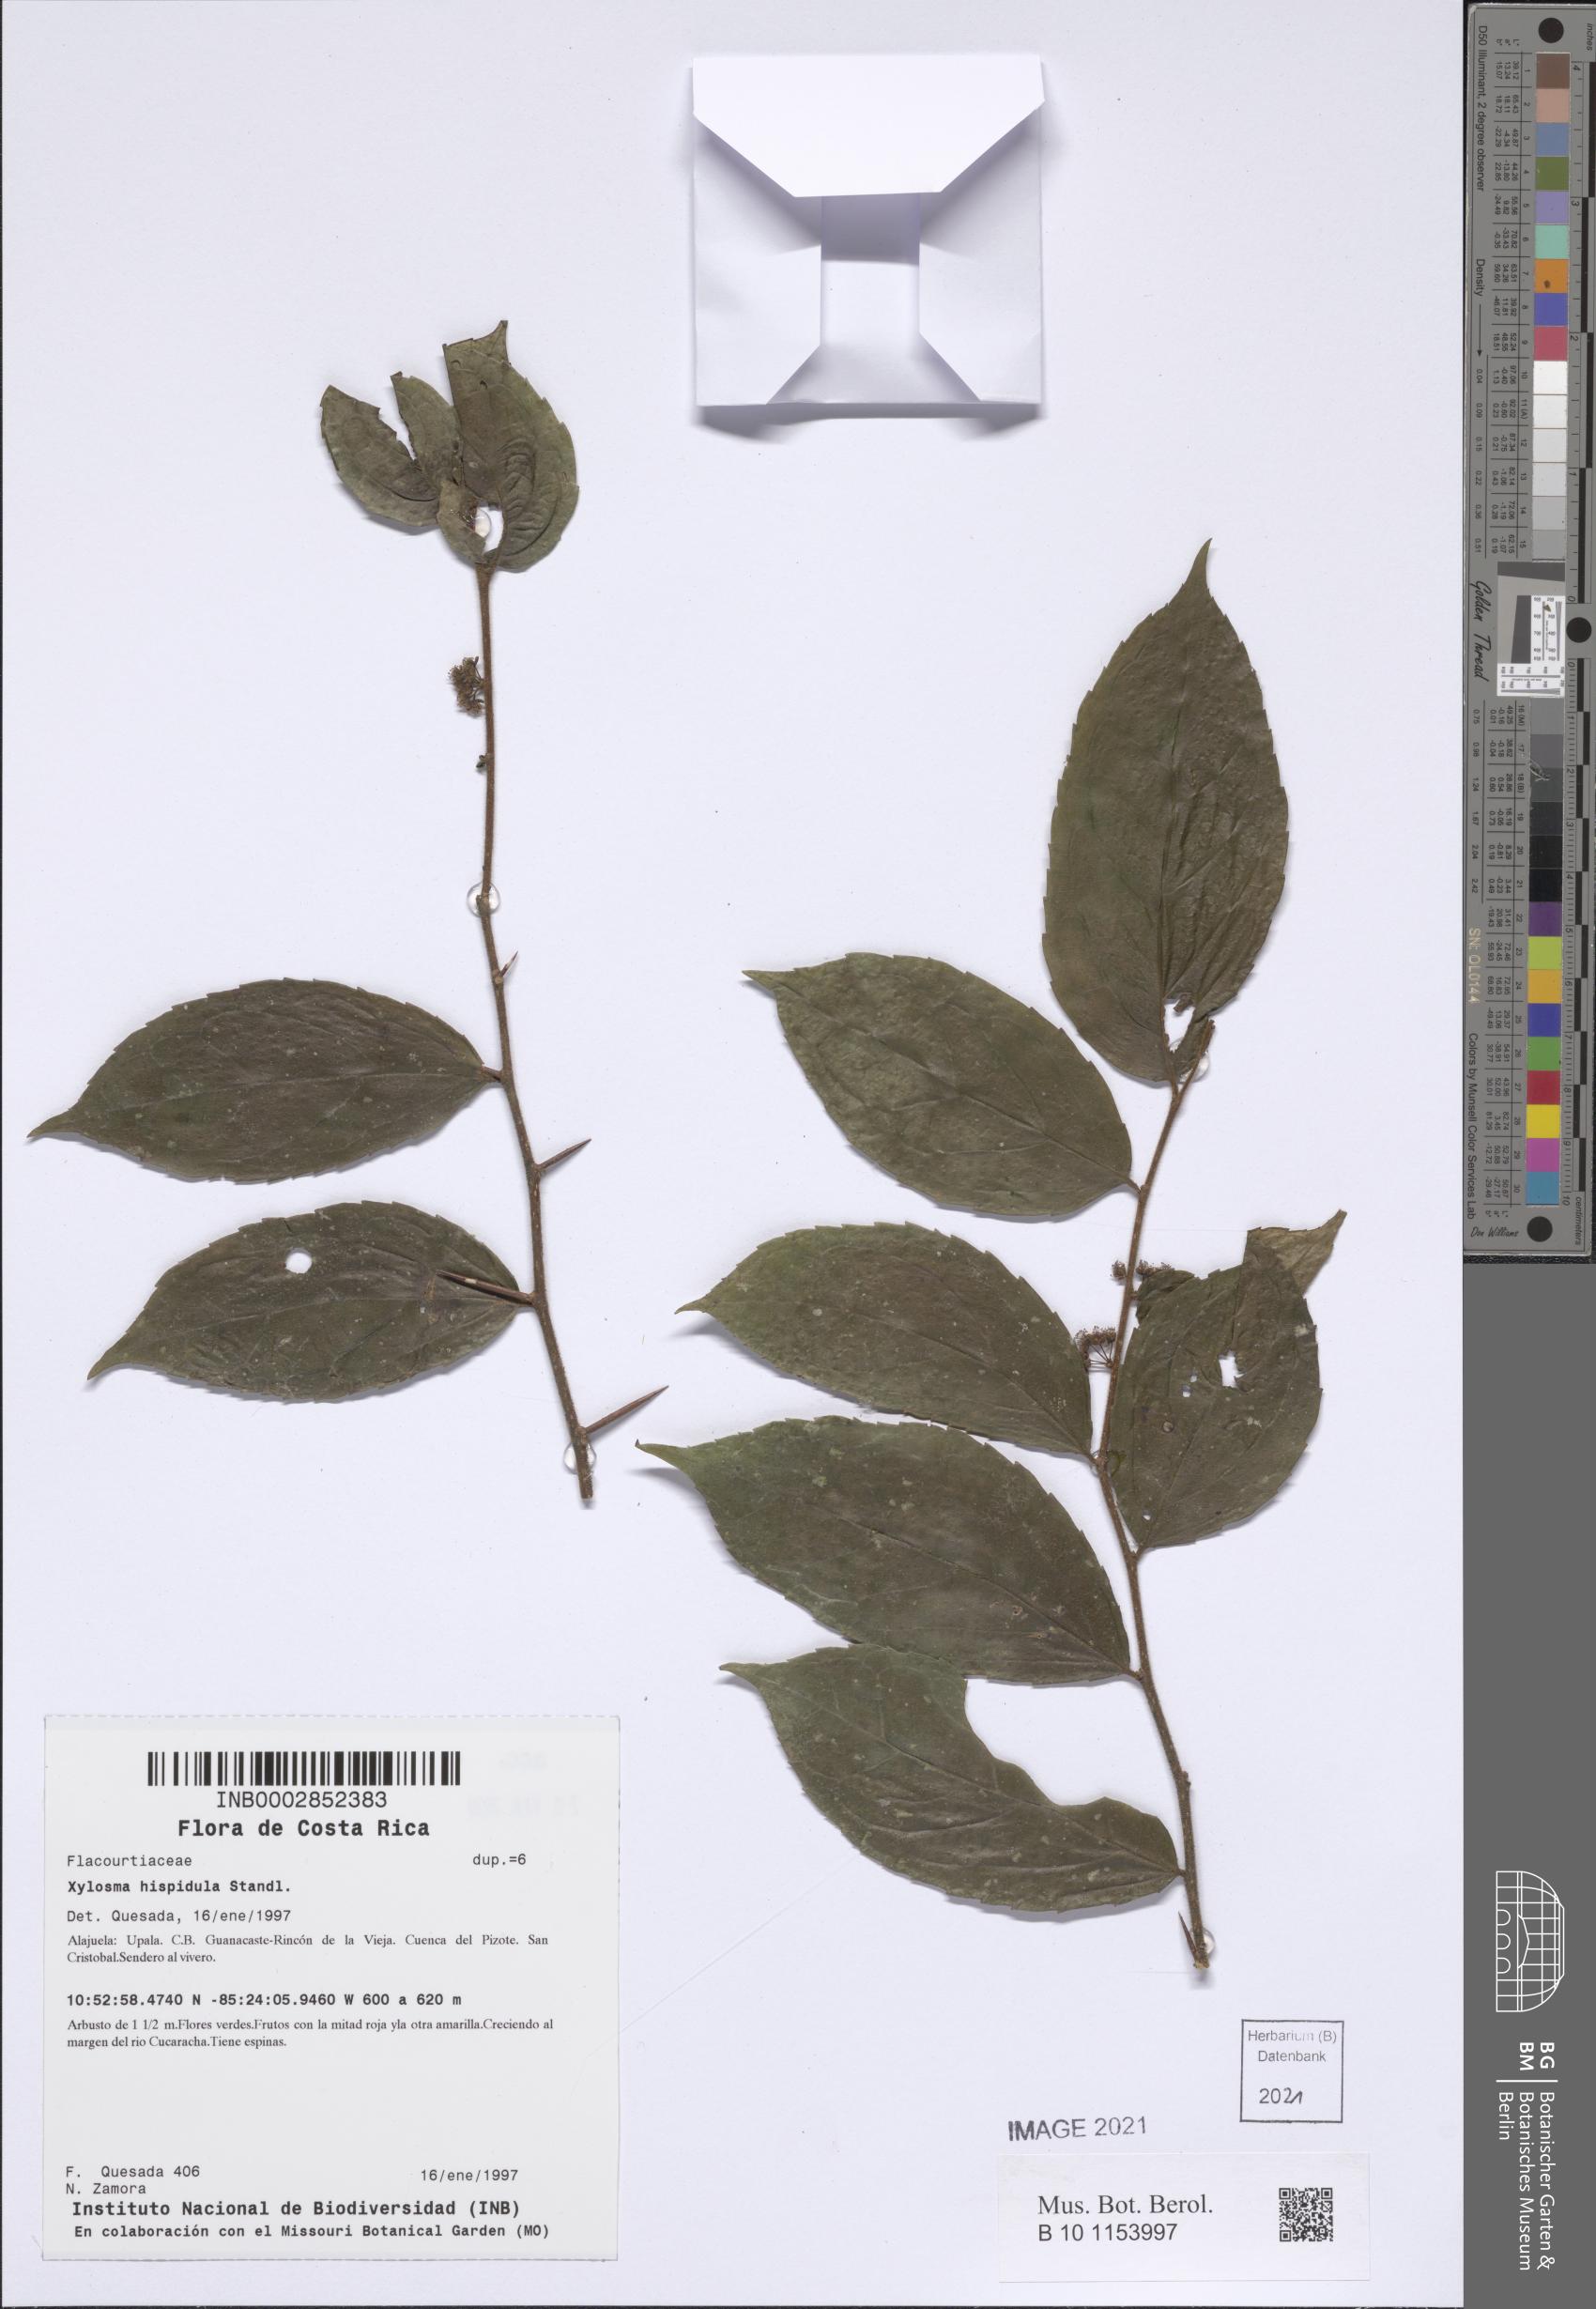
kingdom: Plantae
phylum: Tracheophyta
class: Magnoliopsida
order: Malpighiales
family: Salicaceae
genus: Xylosma
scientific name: Xylosma hispidula
